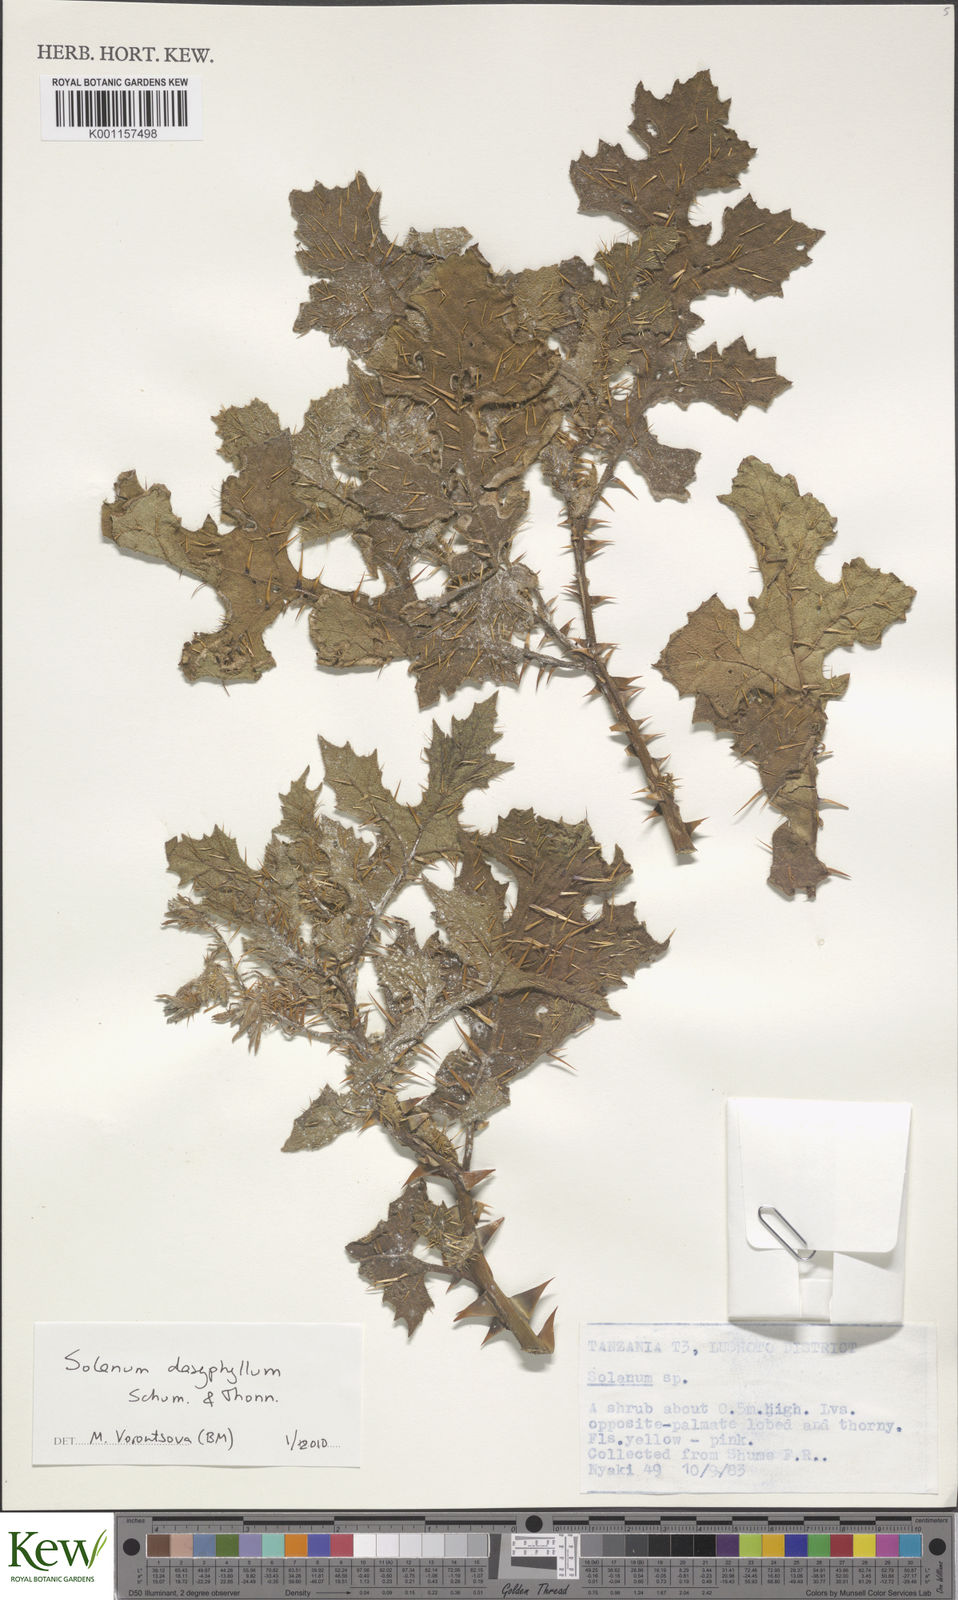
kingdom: Plantae
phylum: Tracheophyta
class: Magnoliopsida
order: Solanales
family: Solanaceae
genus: Solanum
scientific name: Solanum dasyphyllum
